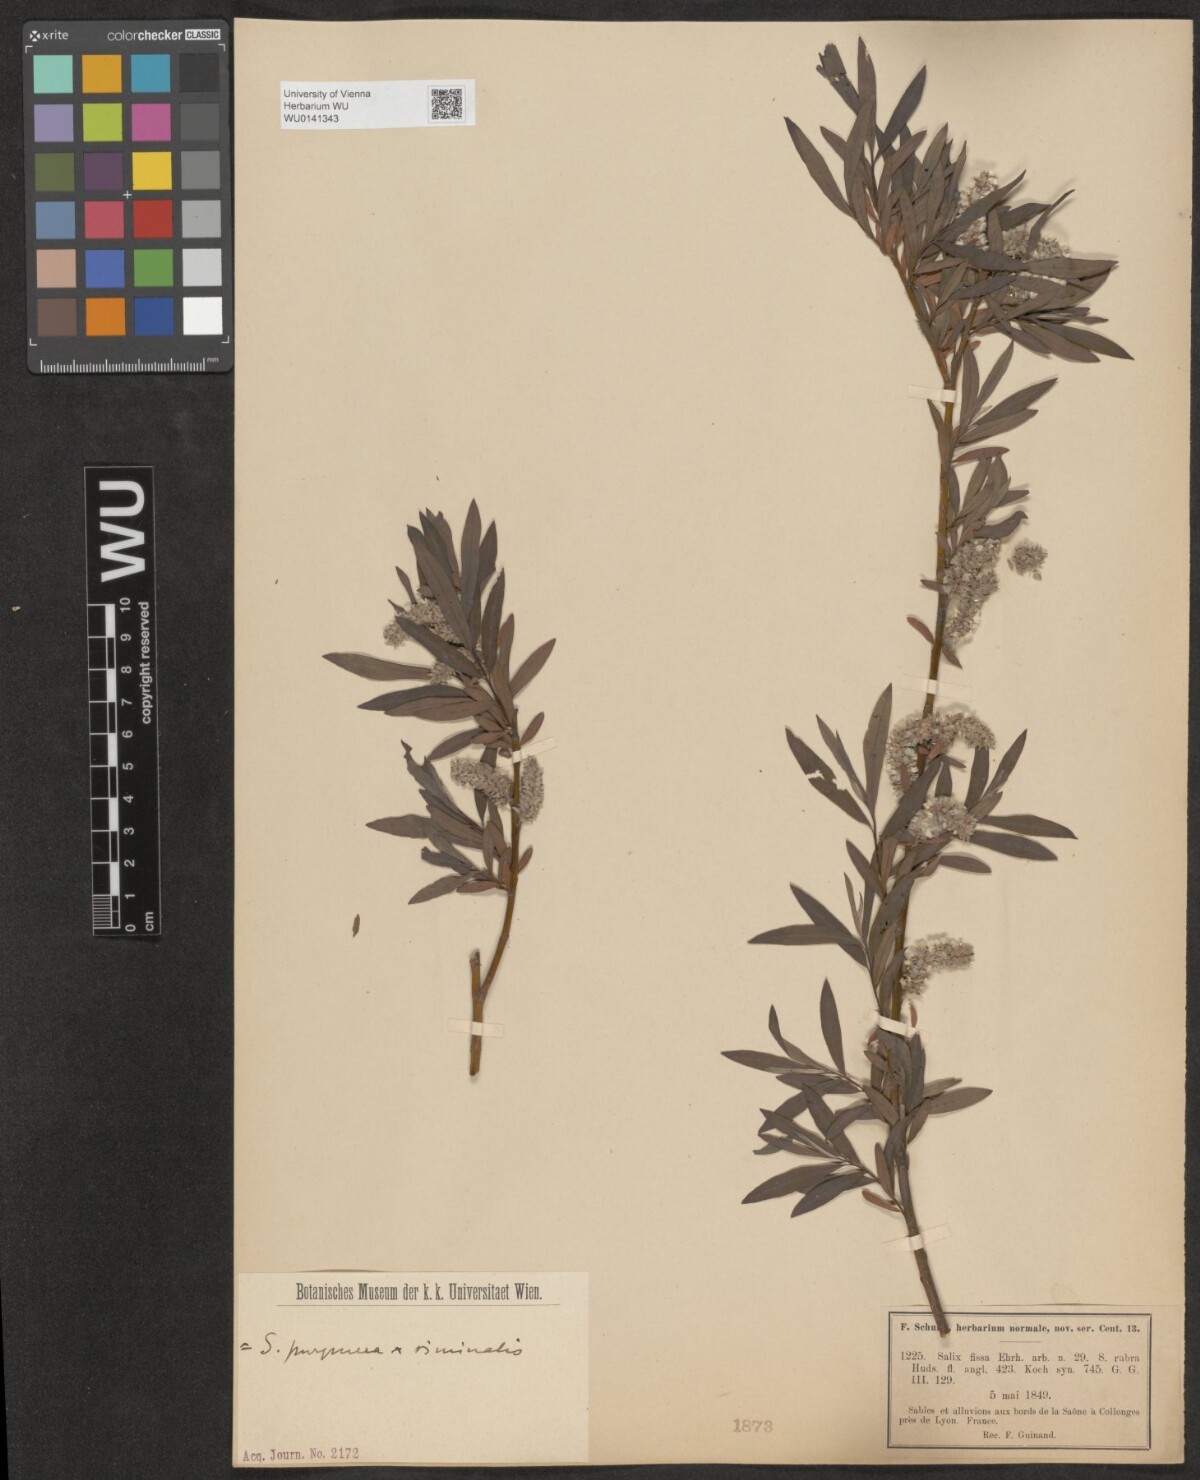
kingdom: Plantae
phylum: Tracheophyta
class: Magnoliopsida
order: Malpighiales
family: Salicaceae
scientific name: Salicaceae
